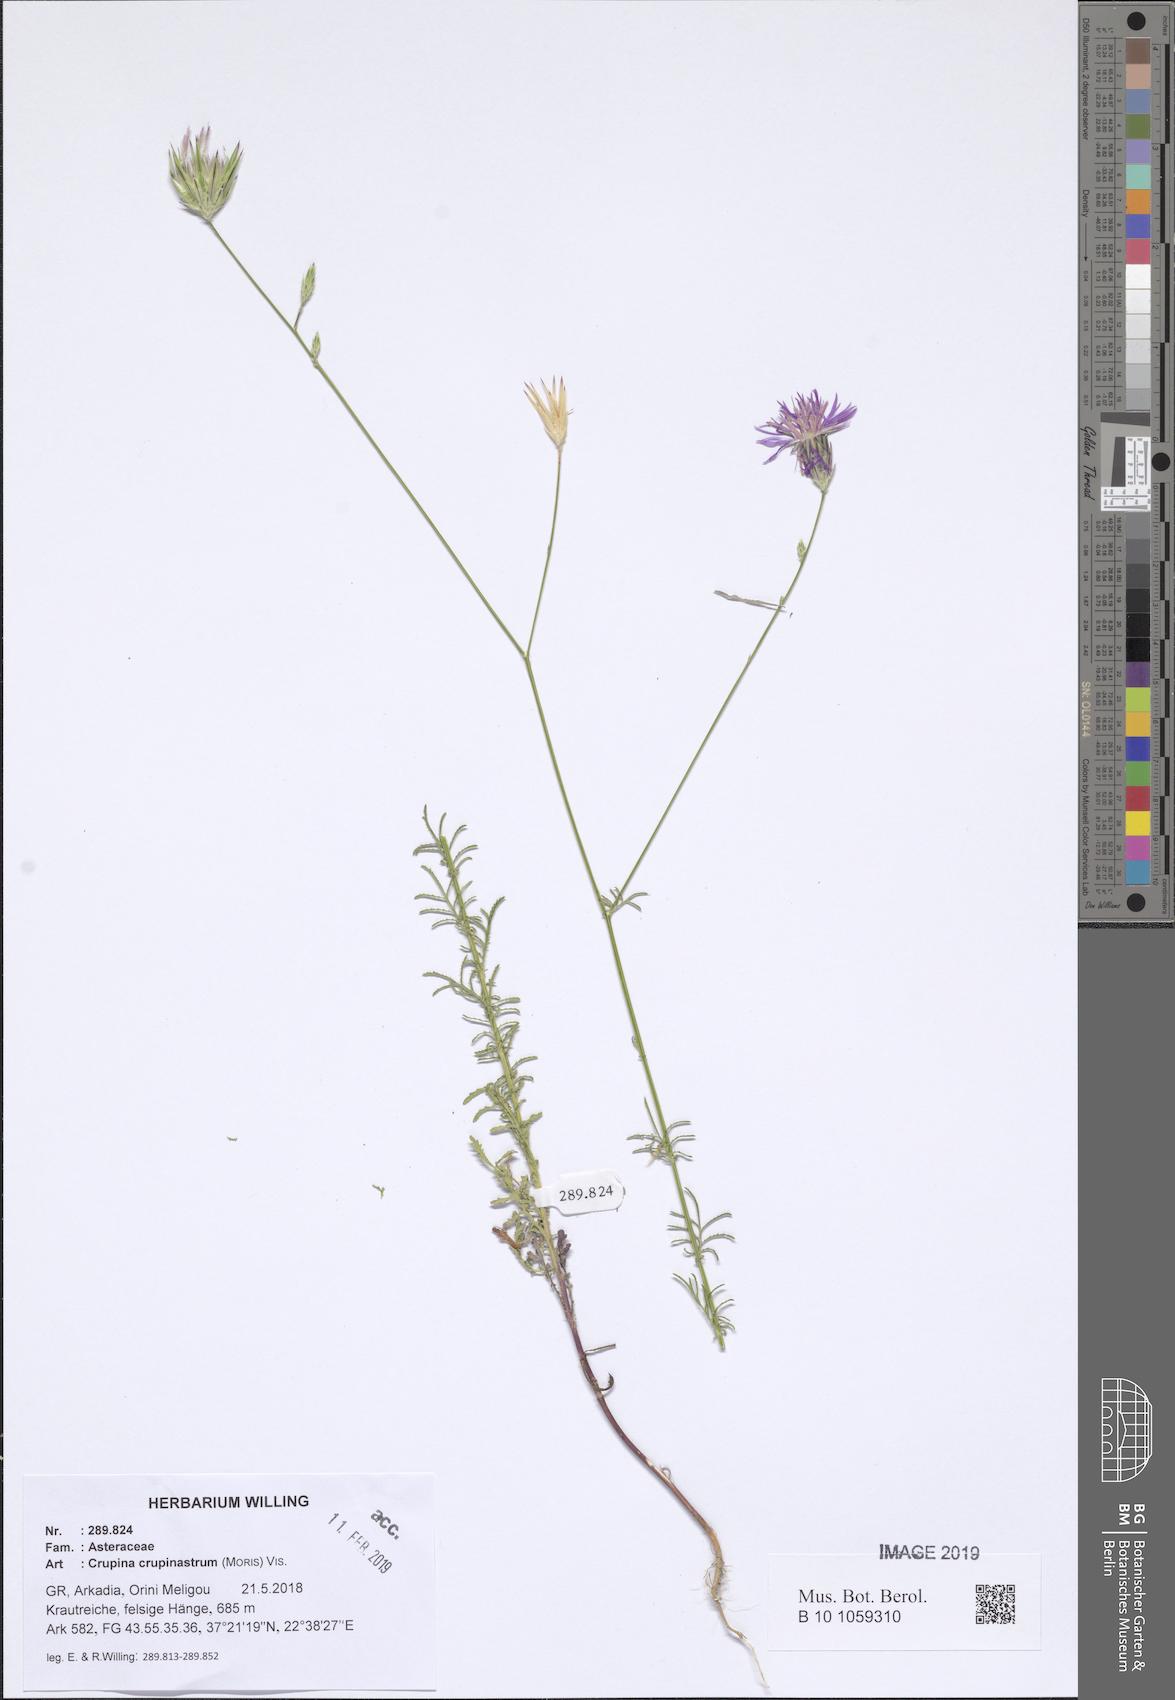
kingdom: Plantae
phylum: Tracheophyta
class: Magnoliopsida
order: Asterales
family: Asteraceae
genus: Crupina
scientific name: Crupina crupinastrum
